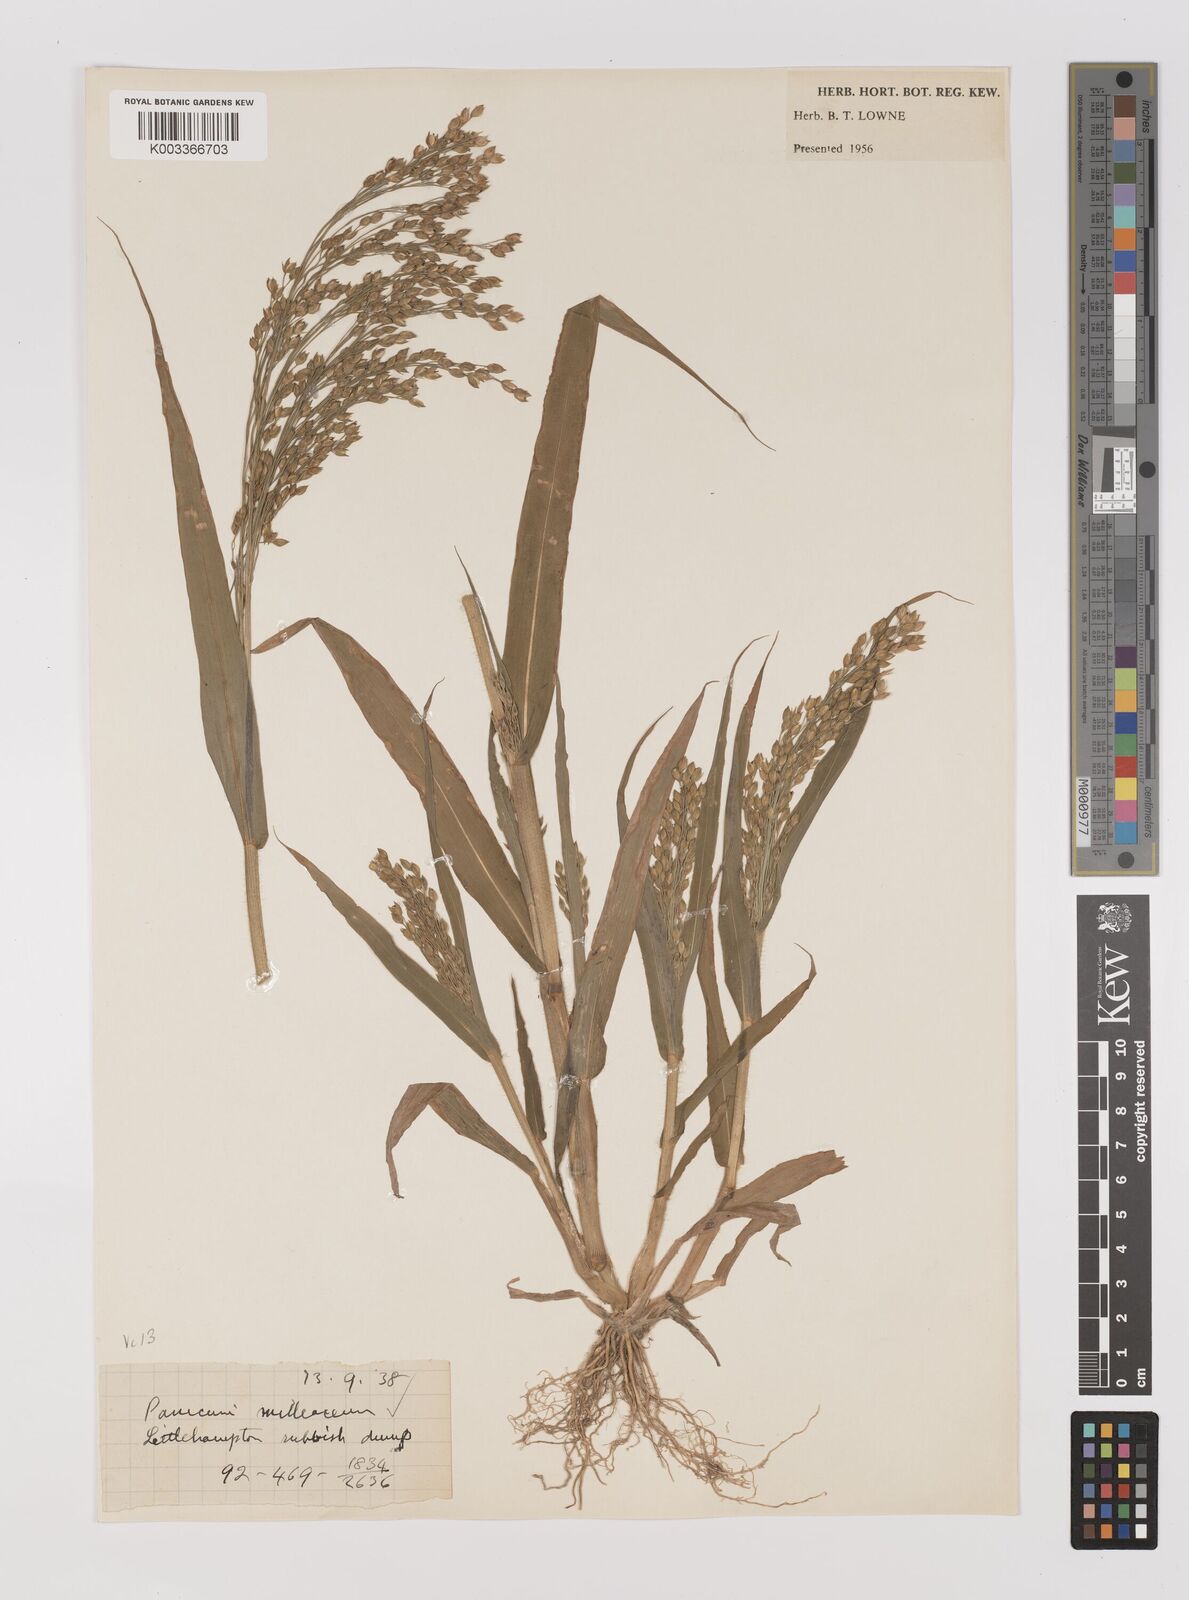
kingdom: Plantae
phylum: Tracheophyta
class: Liliopsida
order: Poales
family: Poaceae
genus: Panicum
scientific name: Panicum miliaceum
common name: Common millet
